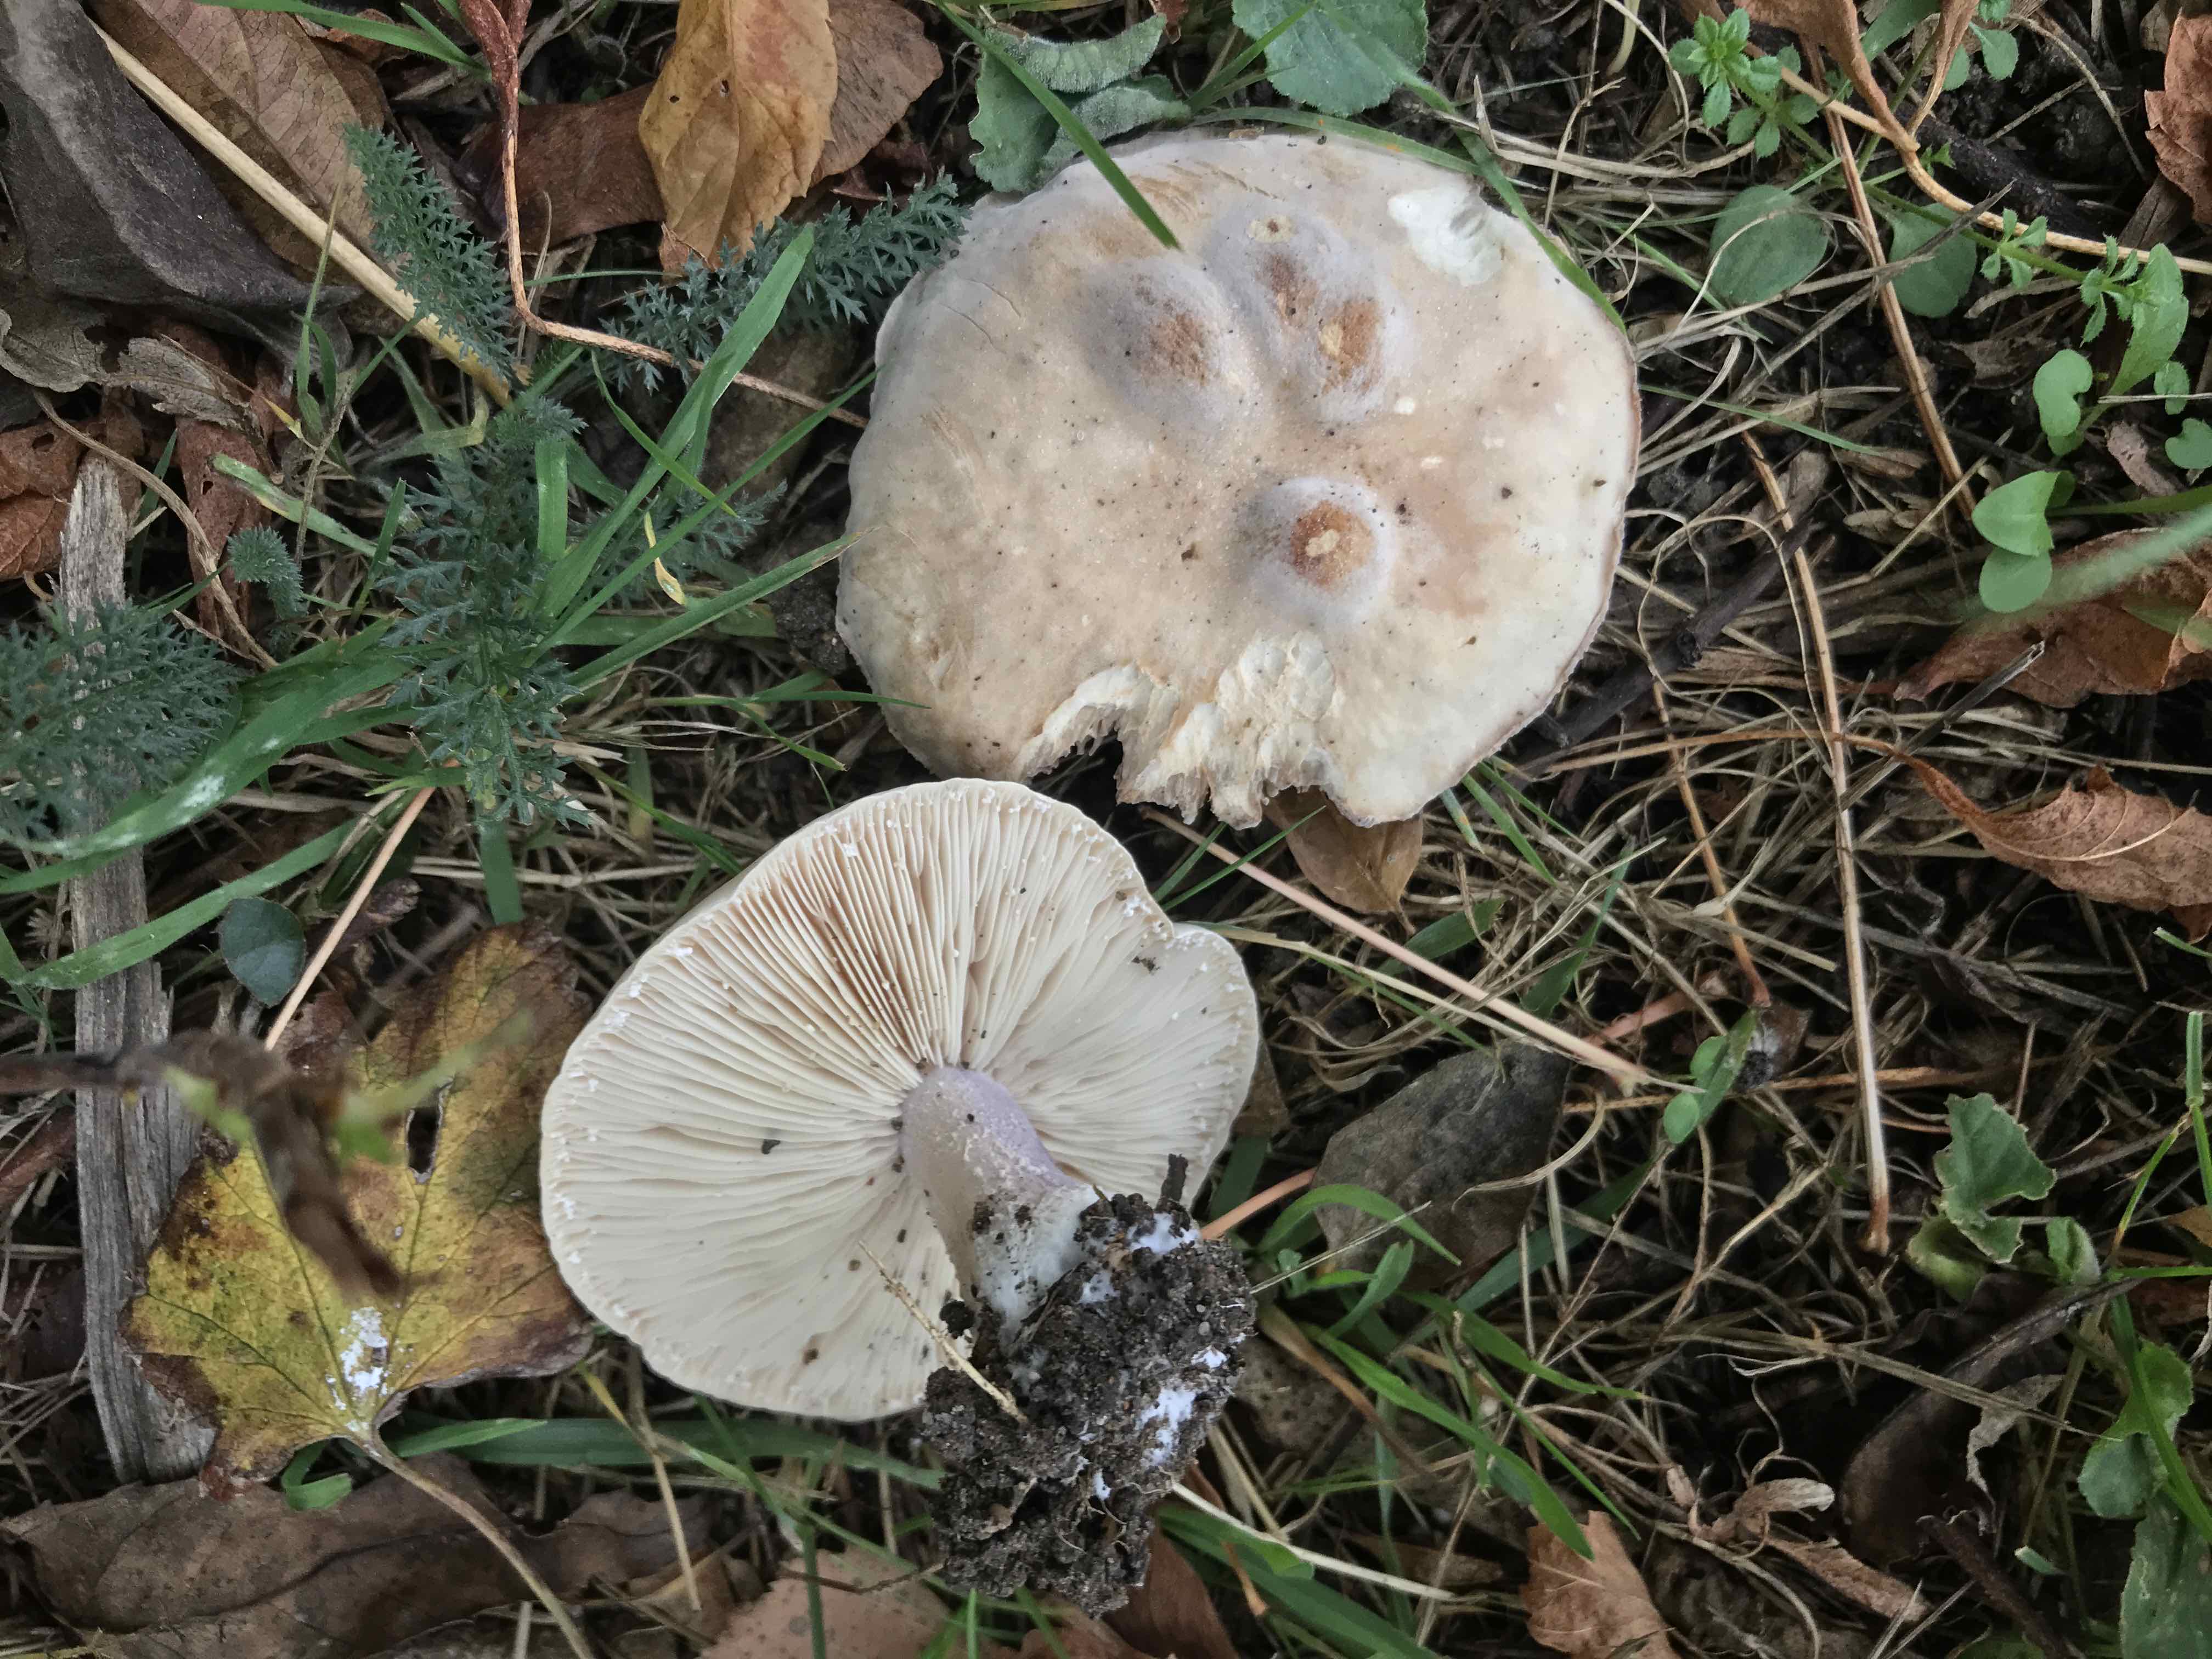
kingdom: Fungi
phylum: Basidiomycota
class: Agaricomycetes
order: Agaricales
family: Tricholomataceae
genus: Lepista
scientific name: Lepista personata
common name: bleg hekseringshat
